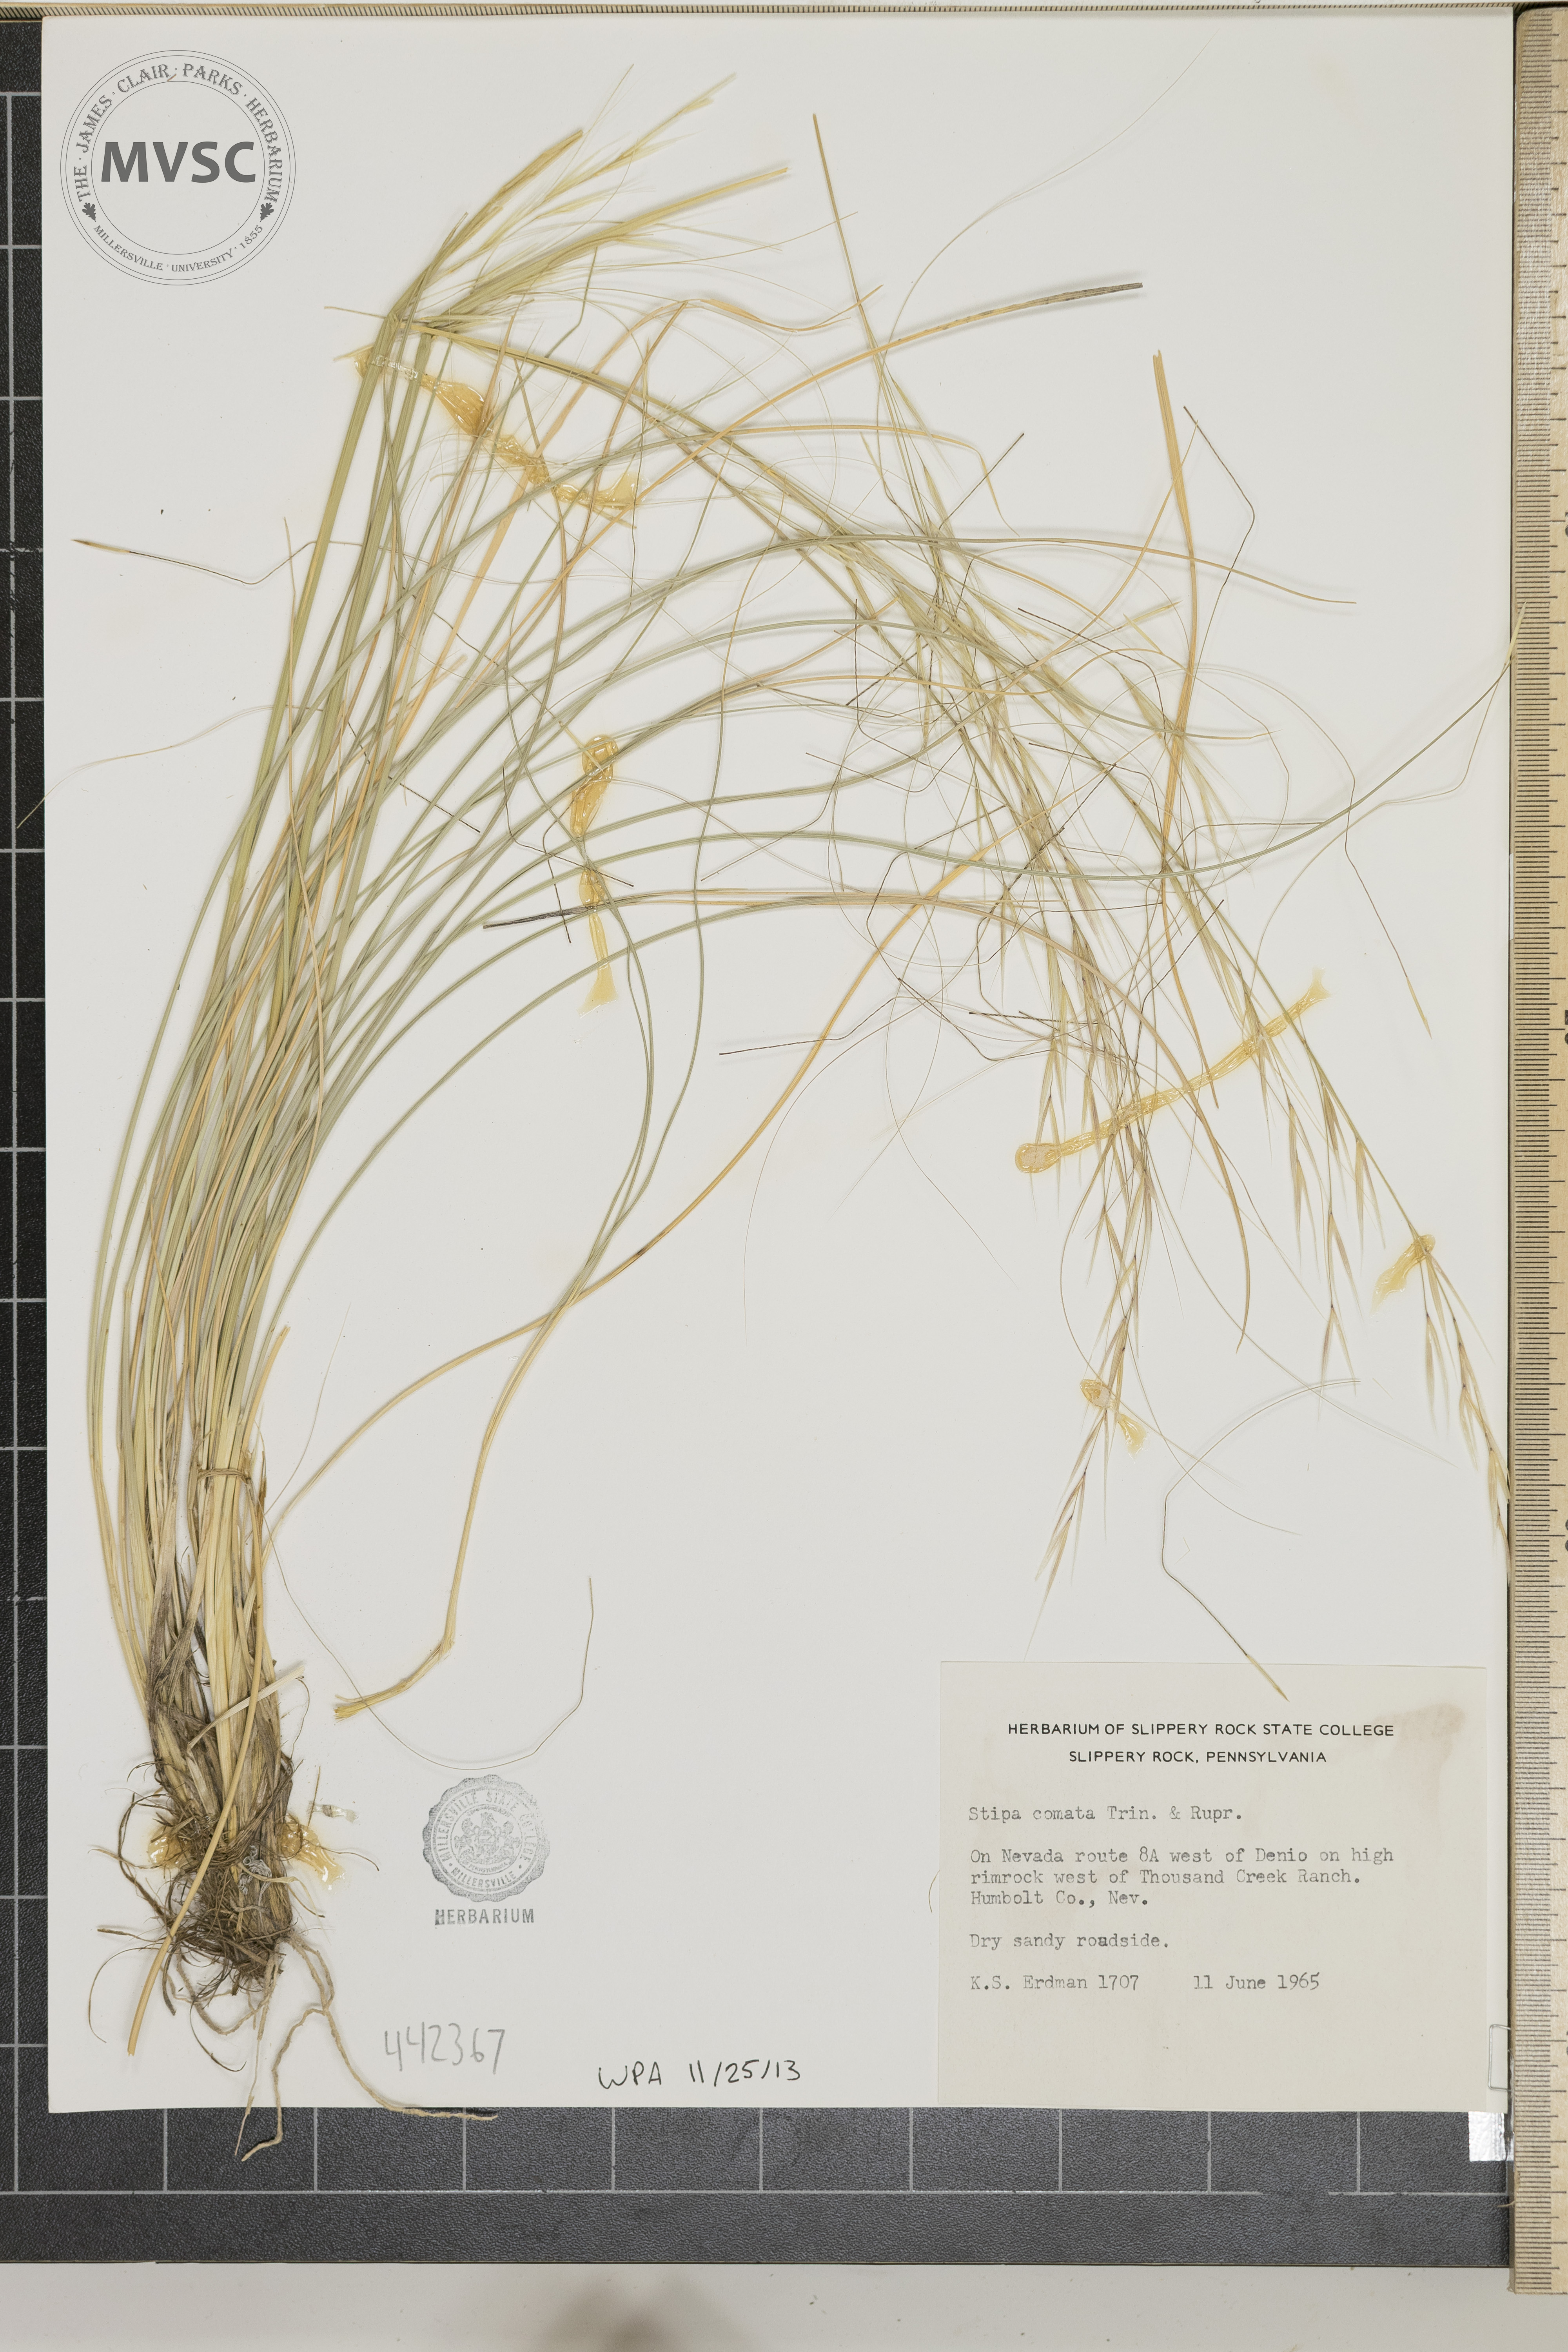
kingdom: Plantae
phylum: Tracheophyta
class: Liliopsida
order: Poales
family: Poaceae
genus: Hesperostipa
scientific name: Hesperostipa comata
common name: Needle-and-thread grass
